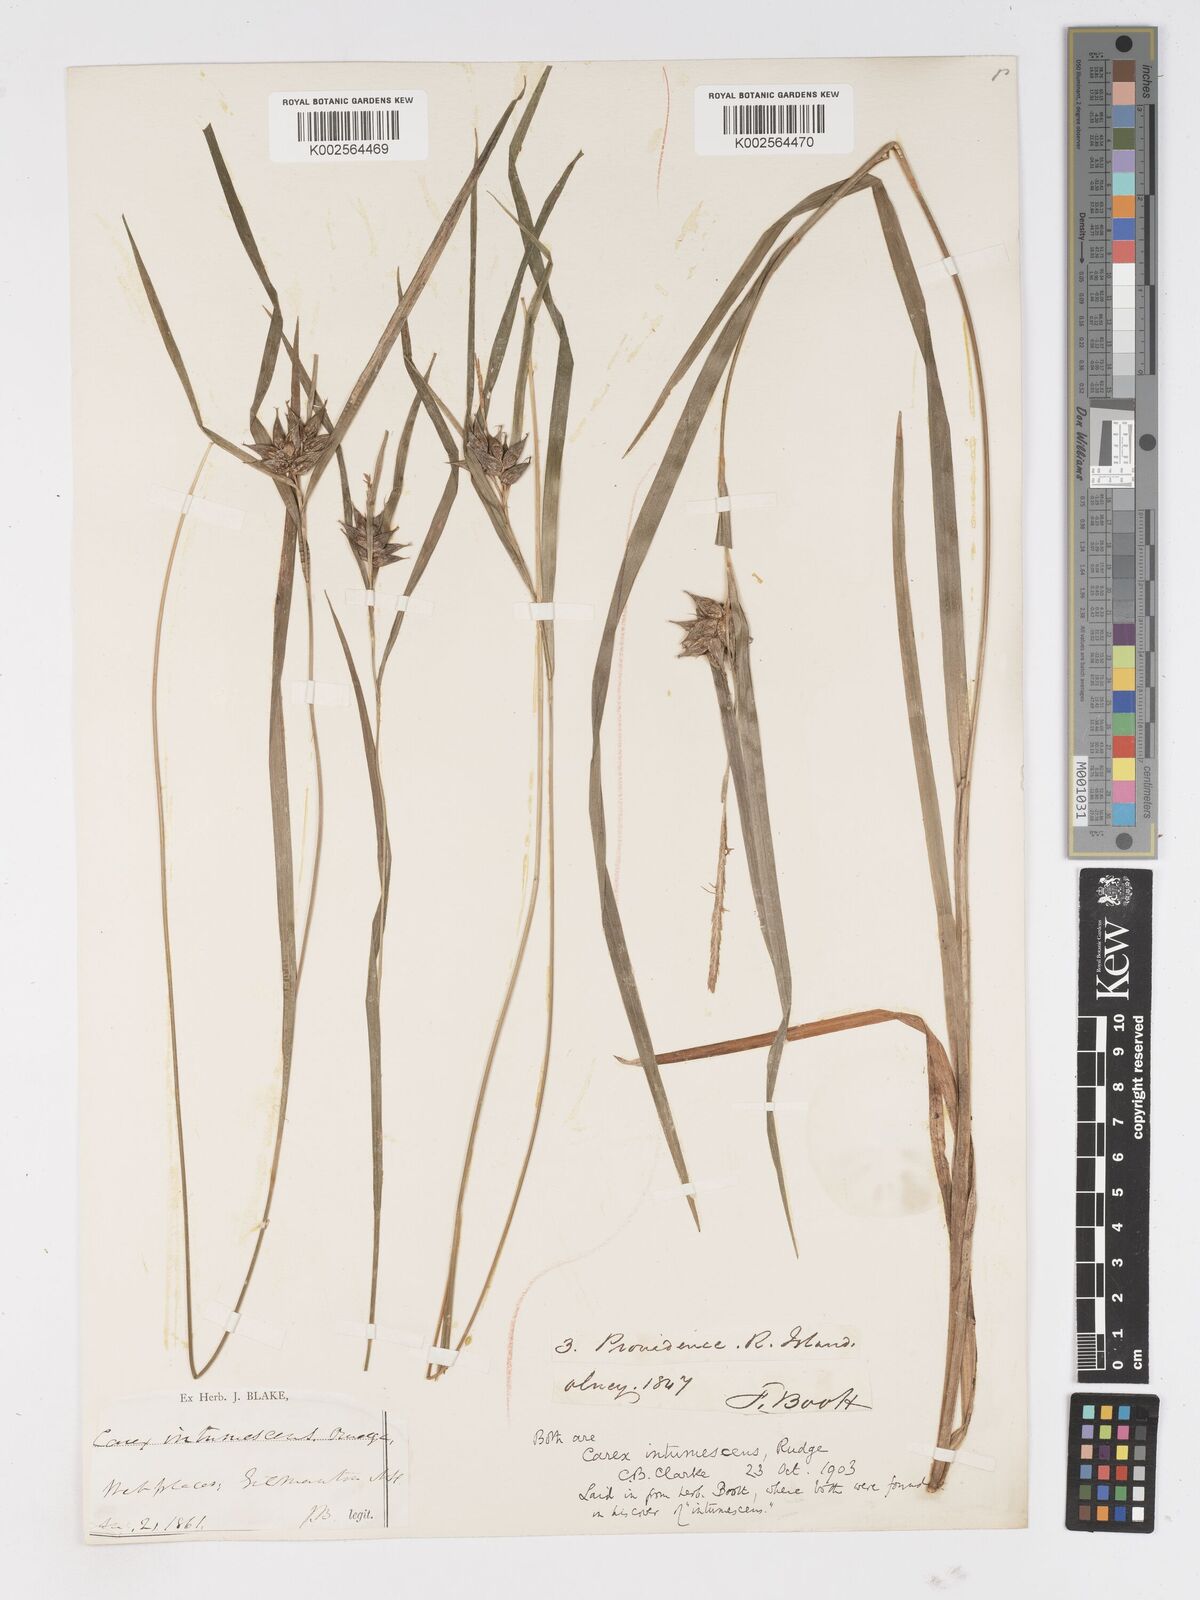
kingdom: Plantae
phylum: Tracheophyta
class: Liliopsida
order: Poales
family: Cyperaceae
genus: Carex
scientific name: Carex intumescens
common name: Greater bladder sedge
